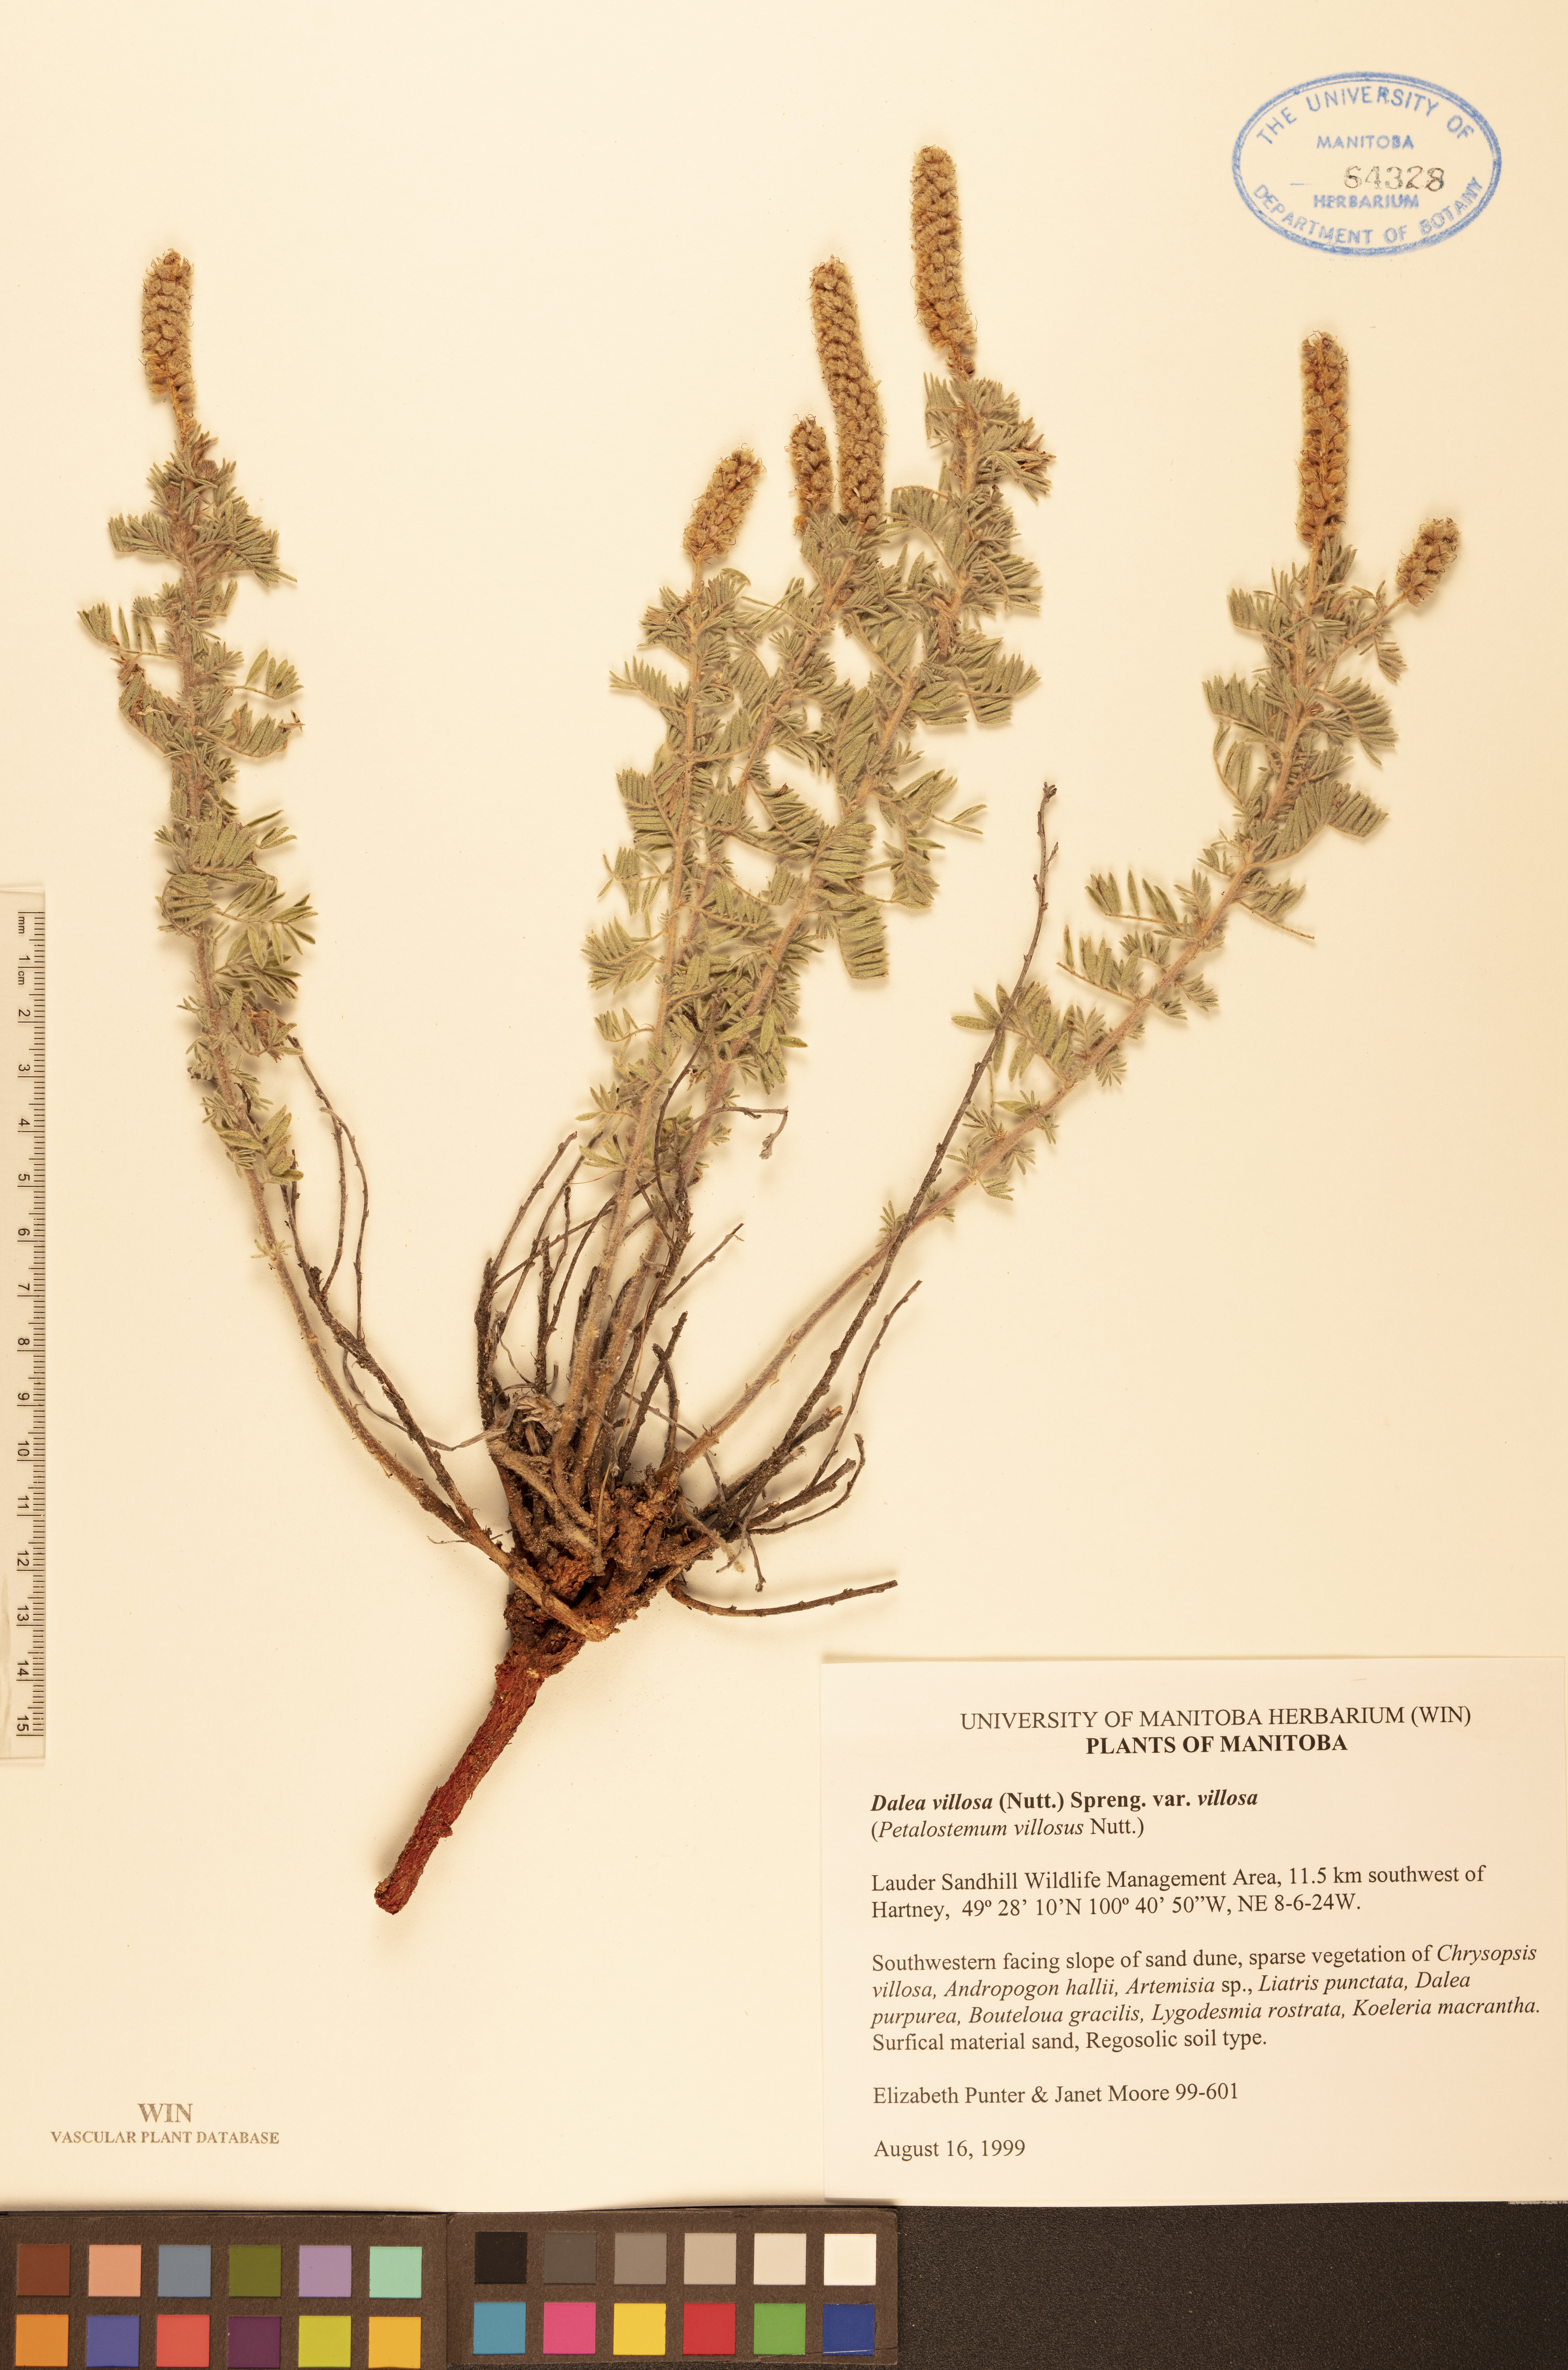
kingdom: Plantae
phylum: Tracheophyta
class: Magnoliopsida
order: Fabales
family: Fabaceae
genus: Dalea
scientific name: Dalea villosa
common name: Silky prairie-clover
